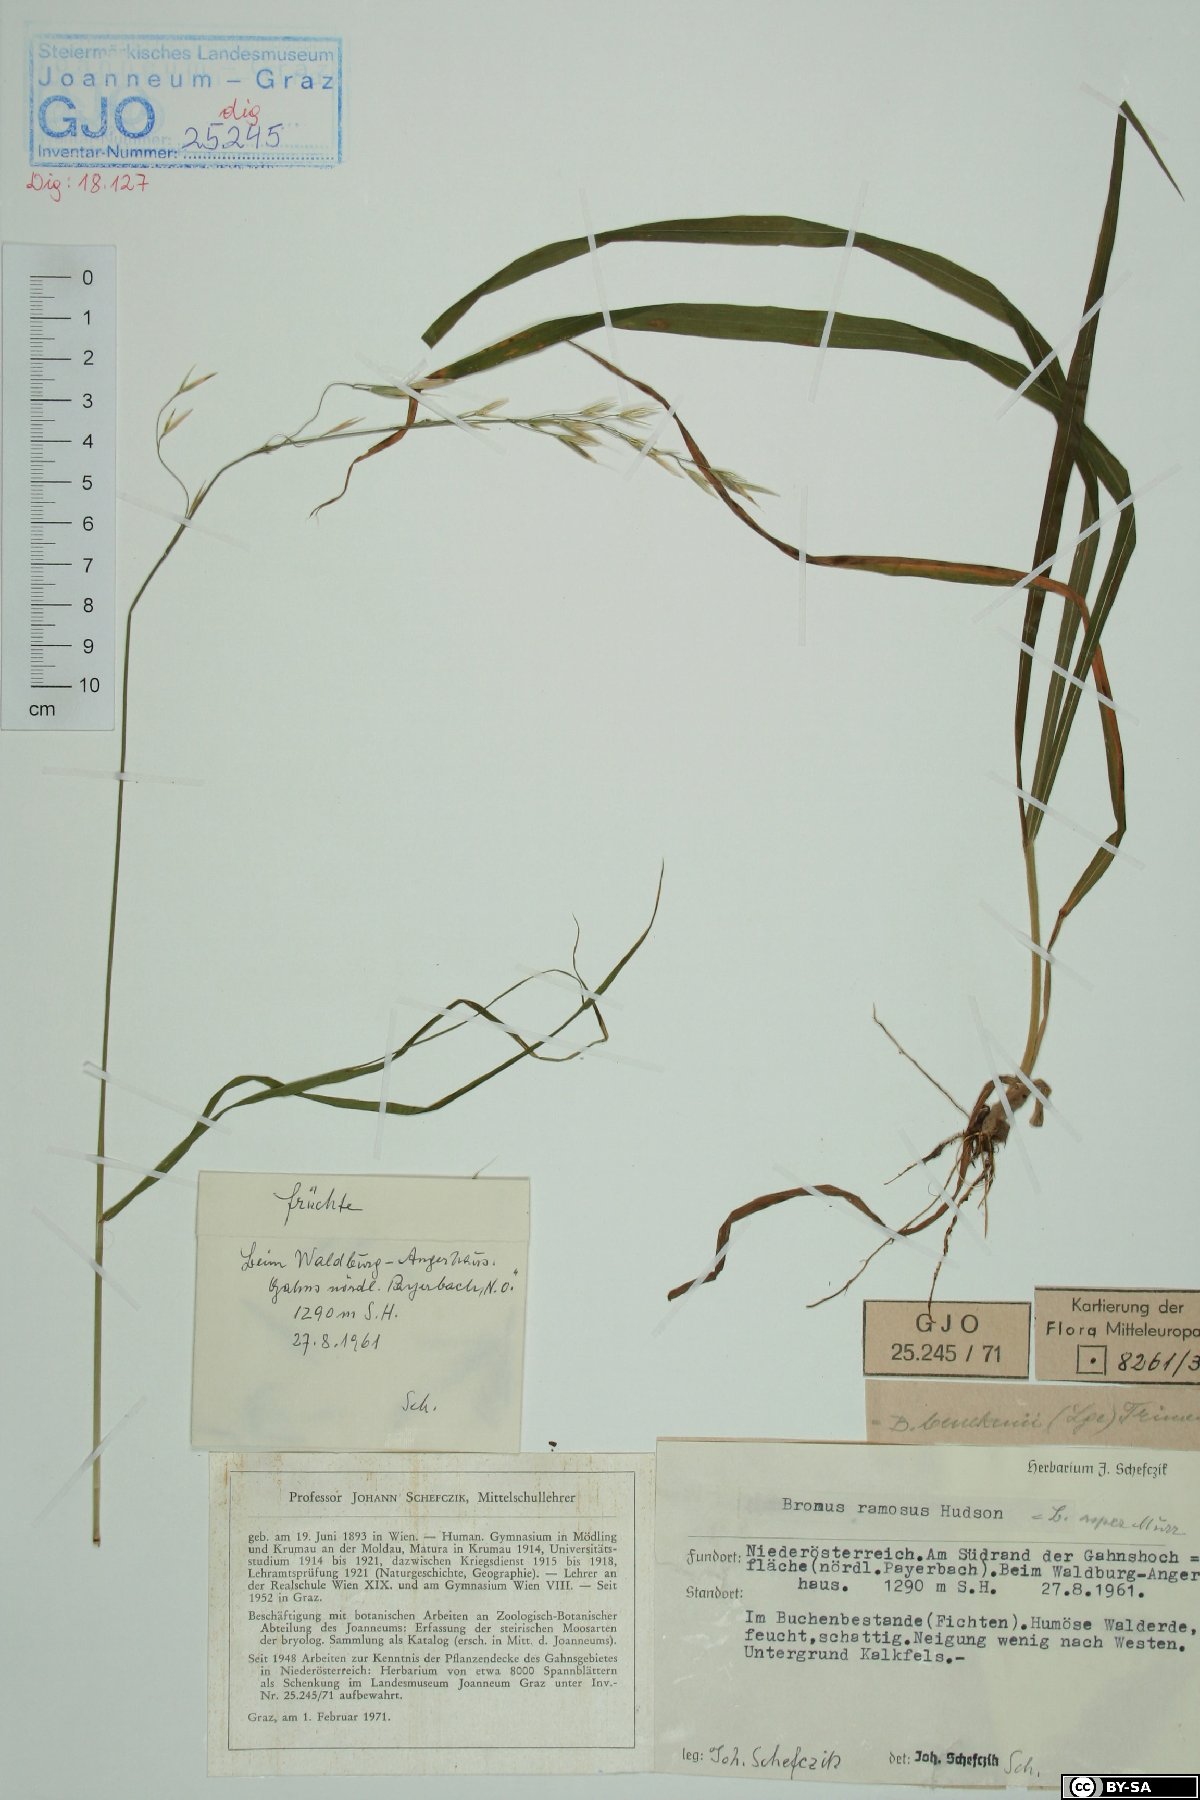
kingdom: Plantae
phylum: Tracheophyta
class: Liliopsida
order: Poales
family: Poaceae
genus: Bromus
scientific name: Bromus ramosus
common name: Hairy brome
